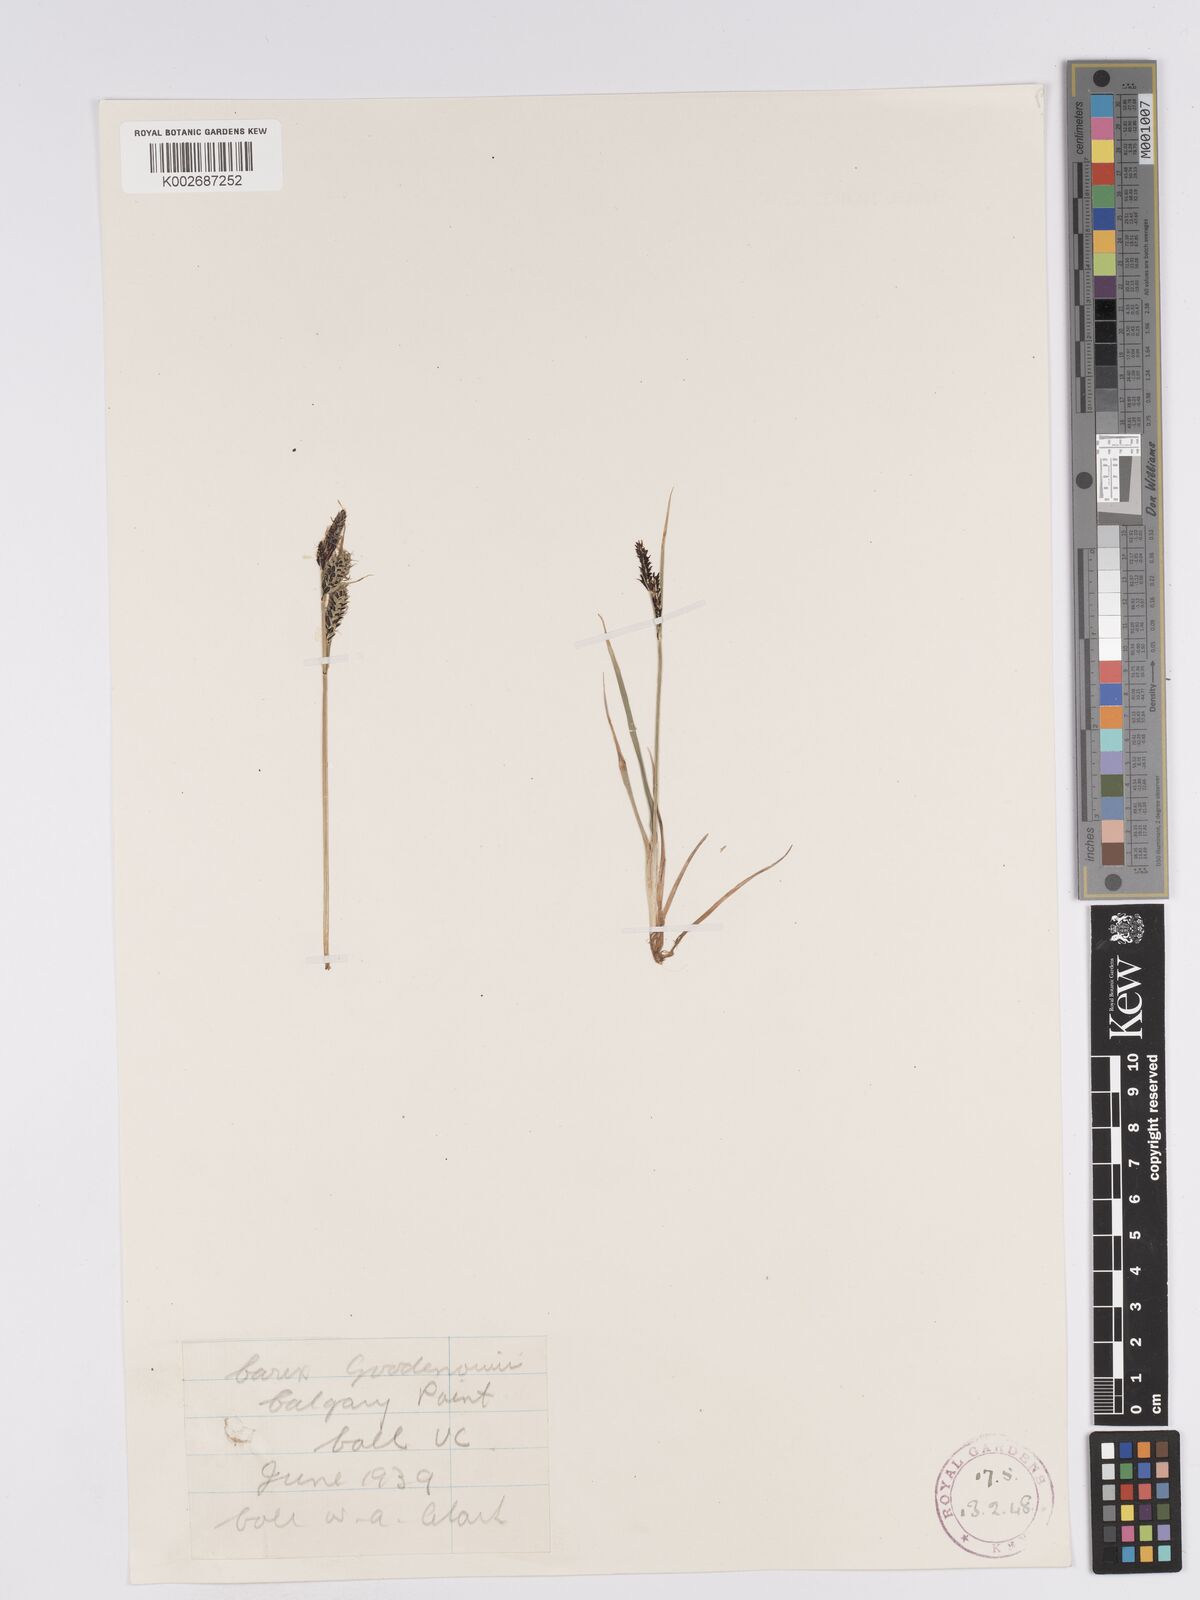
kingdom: Plantae
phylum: Tracheophyta
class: Liliopsida
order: Poales
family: Cyperaceae
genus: Carex
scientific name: Carex nigra
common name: Common sedge
